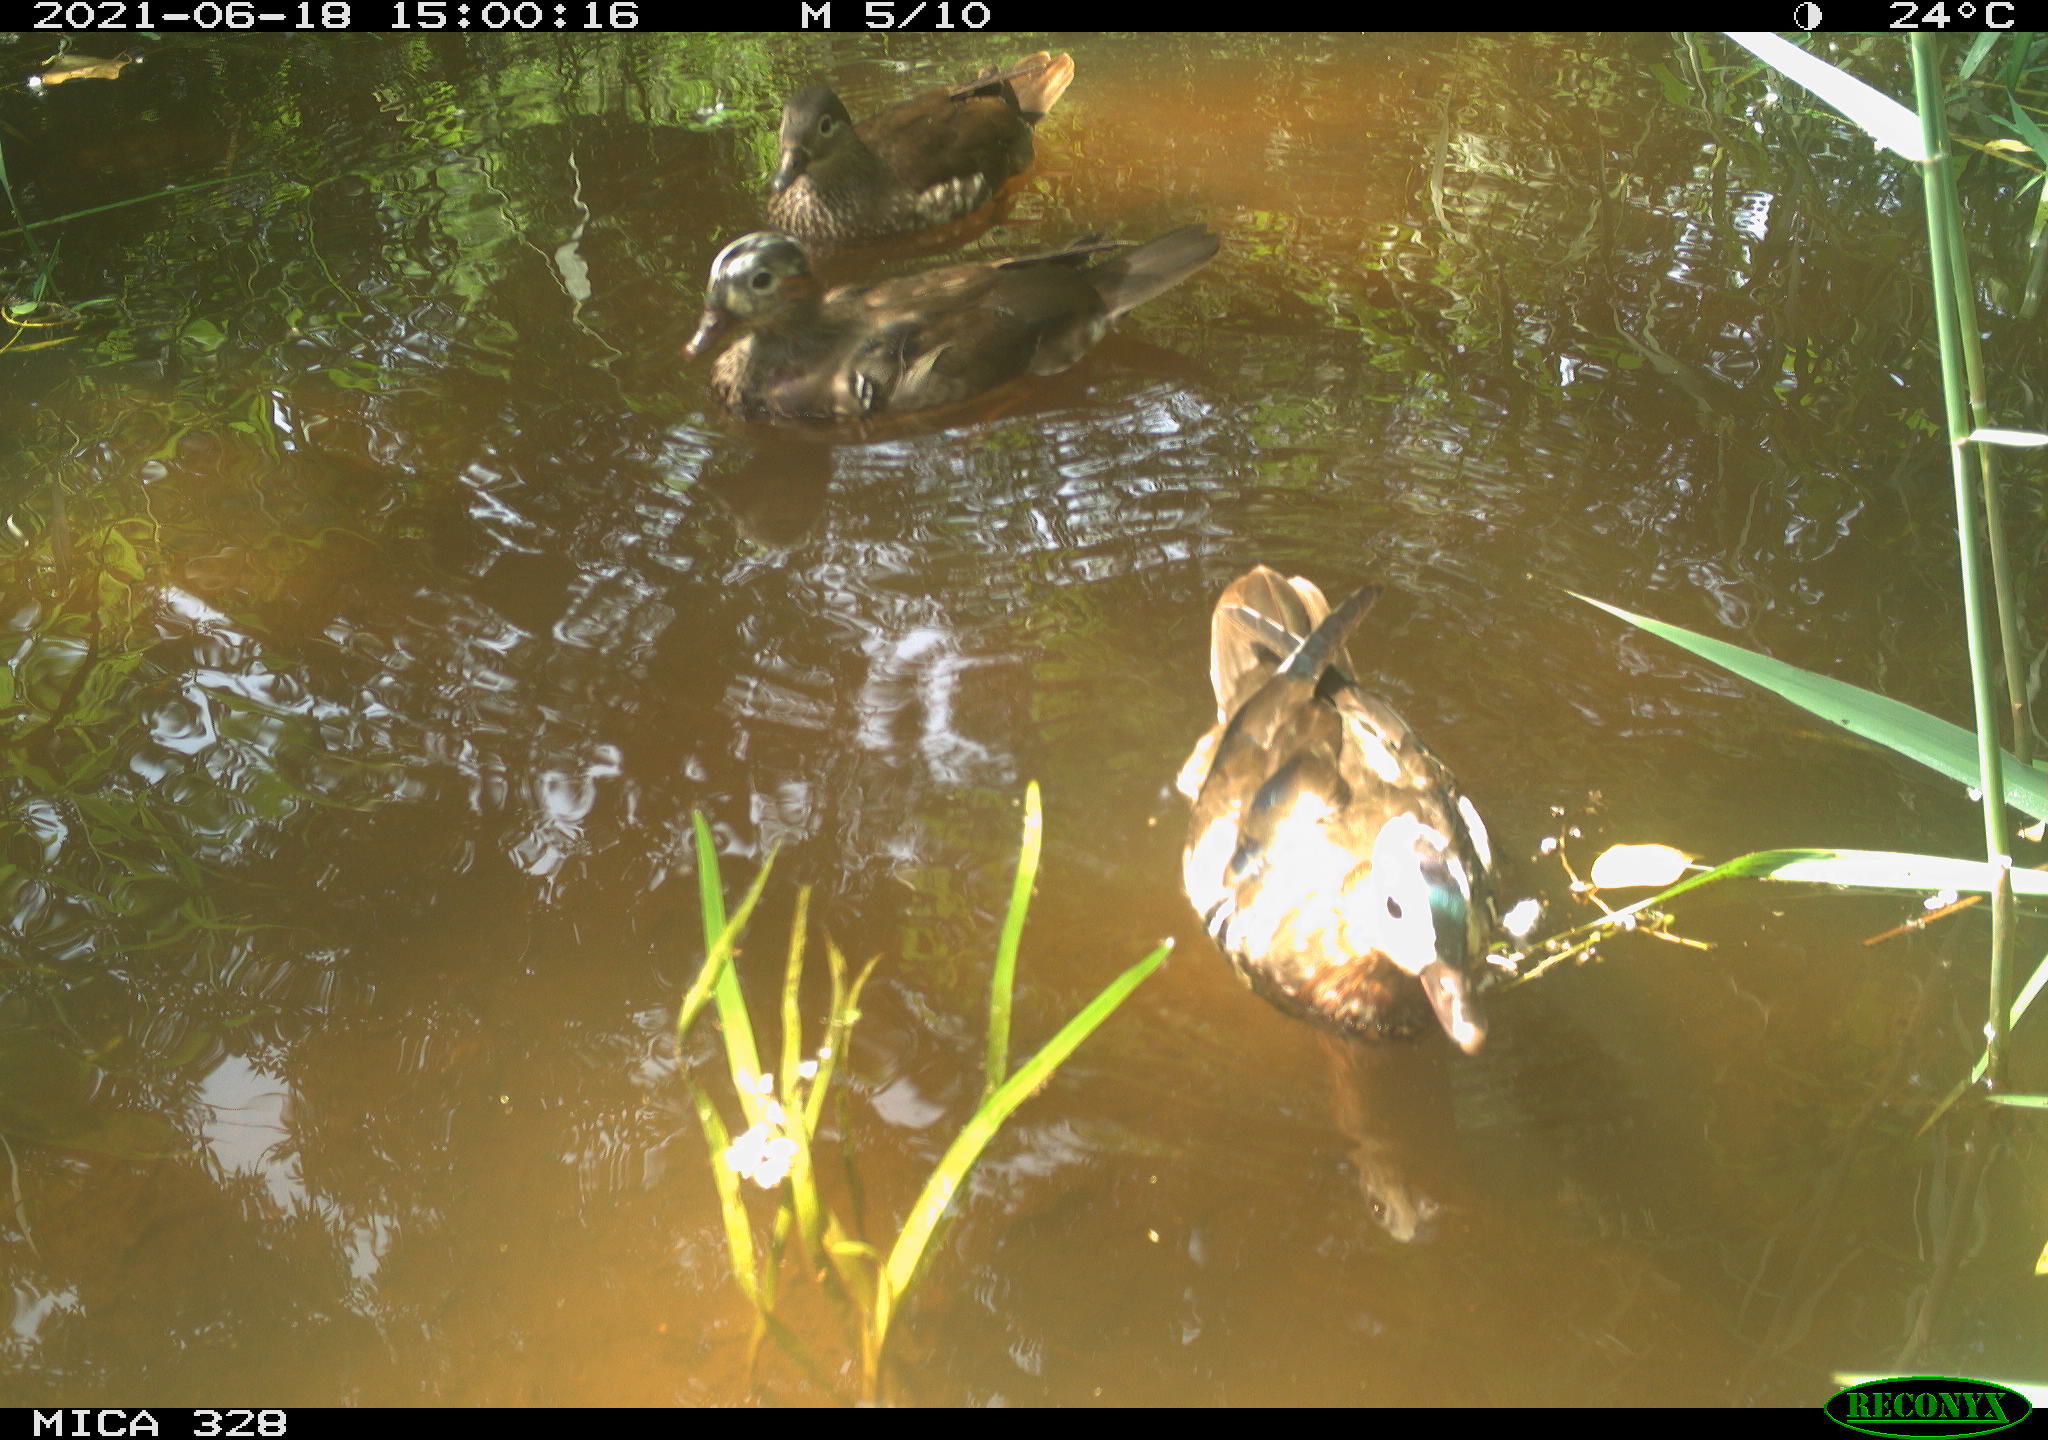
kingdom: Animalia
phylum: Chordata
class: Aves
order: Anseriformes
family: Anatidae
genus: Aix
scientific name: Aix galericulata
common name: Mandarin duck
